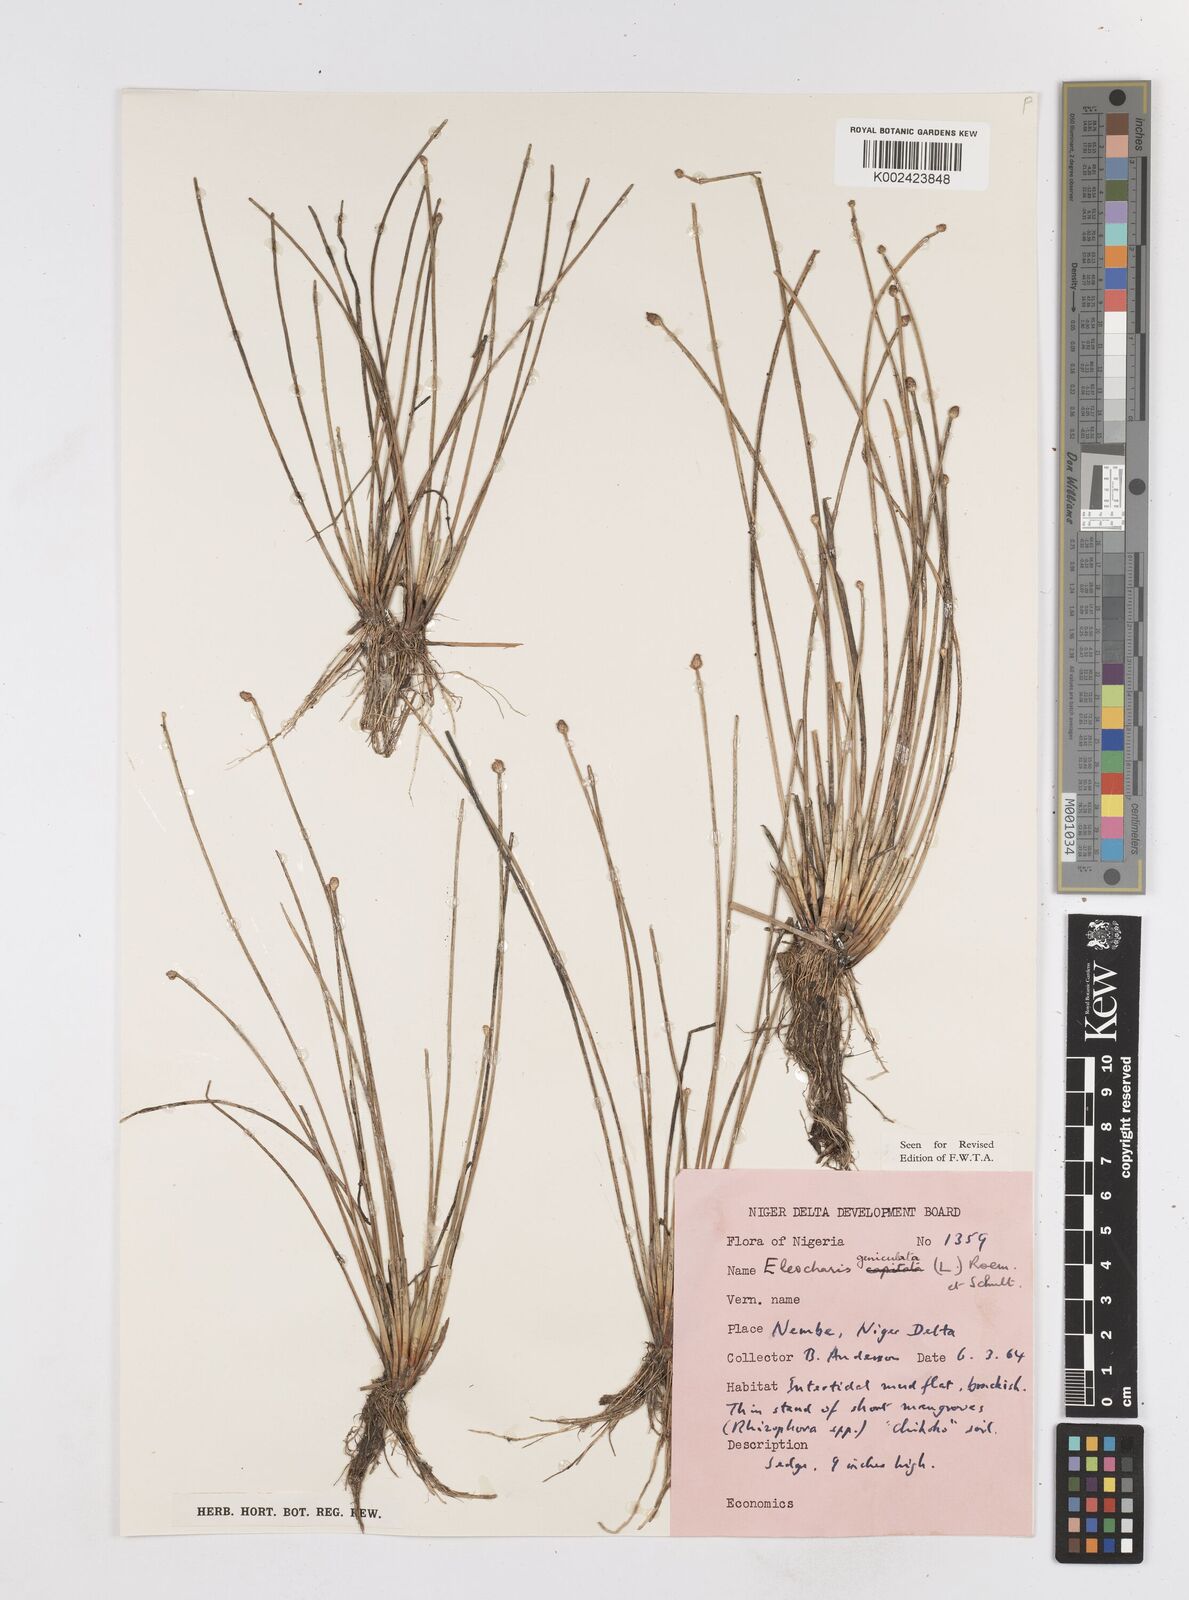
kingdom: Plantae
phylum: Tracheophyta
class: Liliopsida
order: Poales
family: Cyperaceae
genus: Eleocharis
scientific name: Eleocharis geniculata
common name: Canada spikesedge
